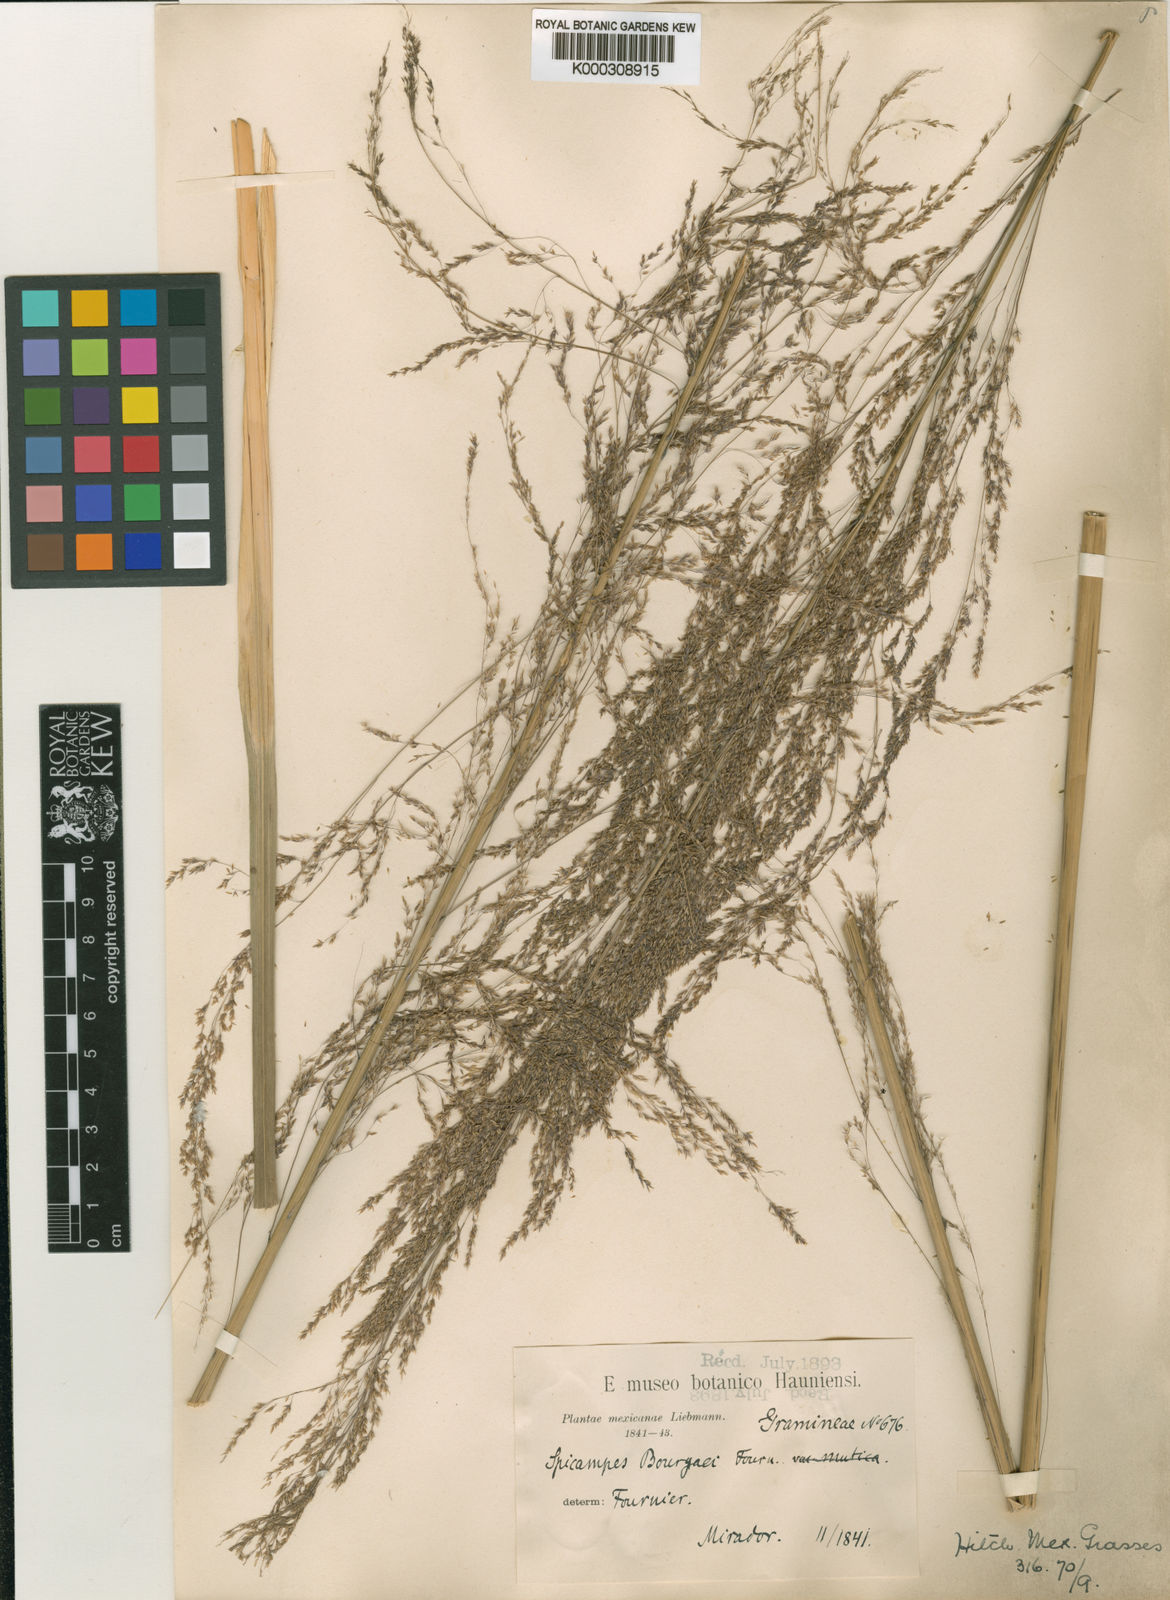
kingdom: Plantae
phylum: Tracheophyta
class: Liliopsida
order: Poales
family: Poaceae
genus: Muhlenbergia
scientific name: Muhlenbergia gigantea
